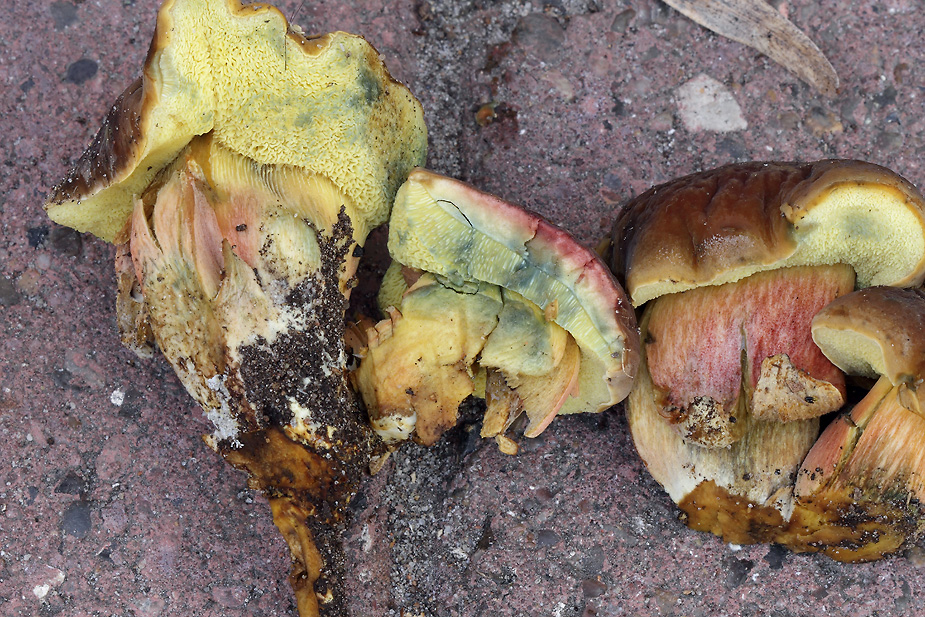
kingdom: Fungi
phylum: Basidiomycota
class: Agaricomycetes
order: Boletales
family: Boletaceae
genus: Hortiboletus
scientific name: Hortiboletus bubalinus
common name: aurora-rørhat
